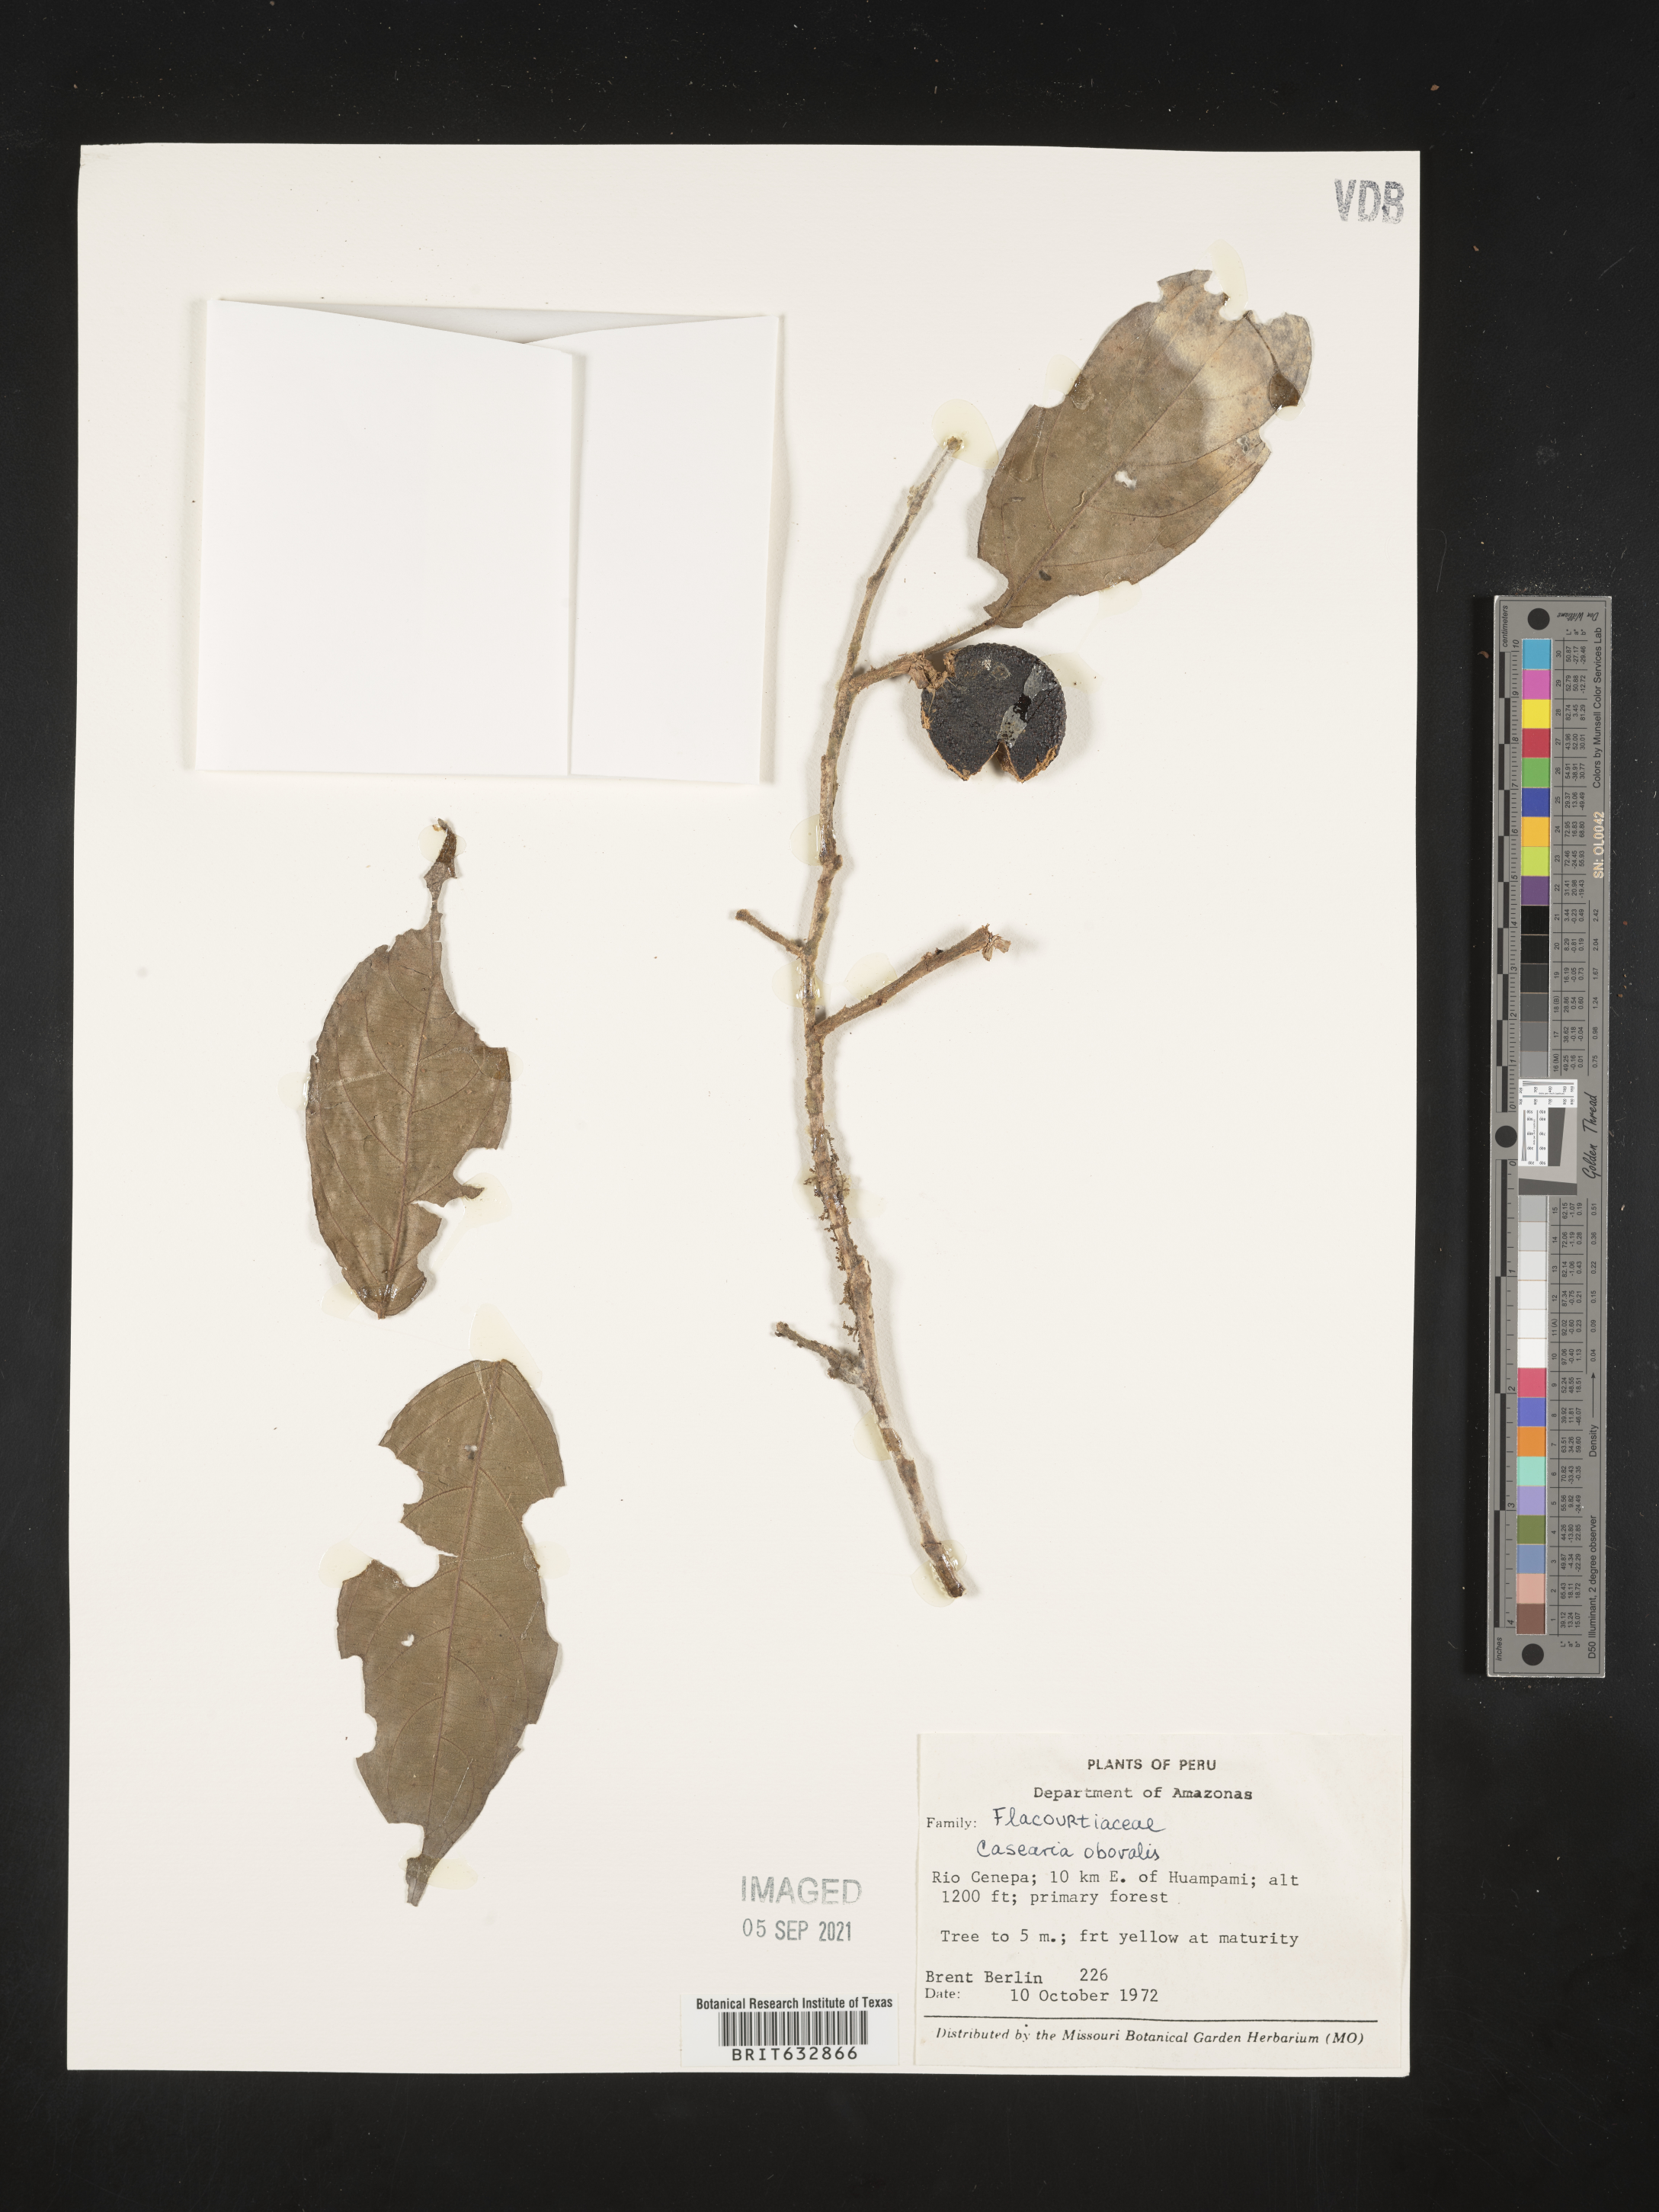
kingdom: Plantae
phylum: Tracheophyta
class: Magnoliopsida
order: Malpighiales
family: Salicaceae
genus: Casearia
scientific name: Casearia
